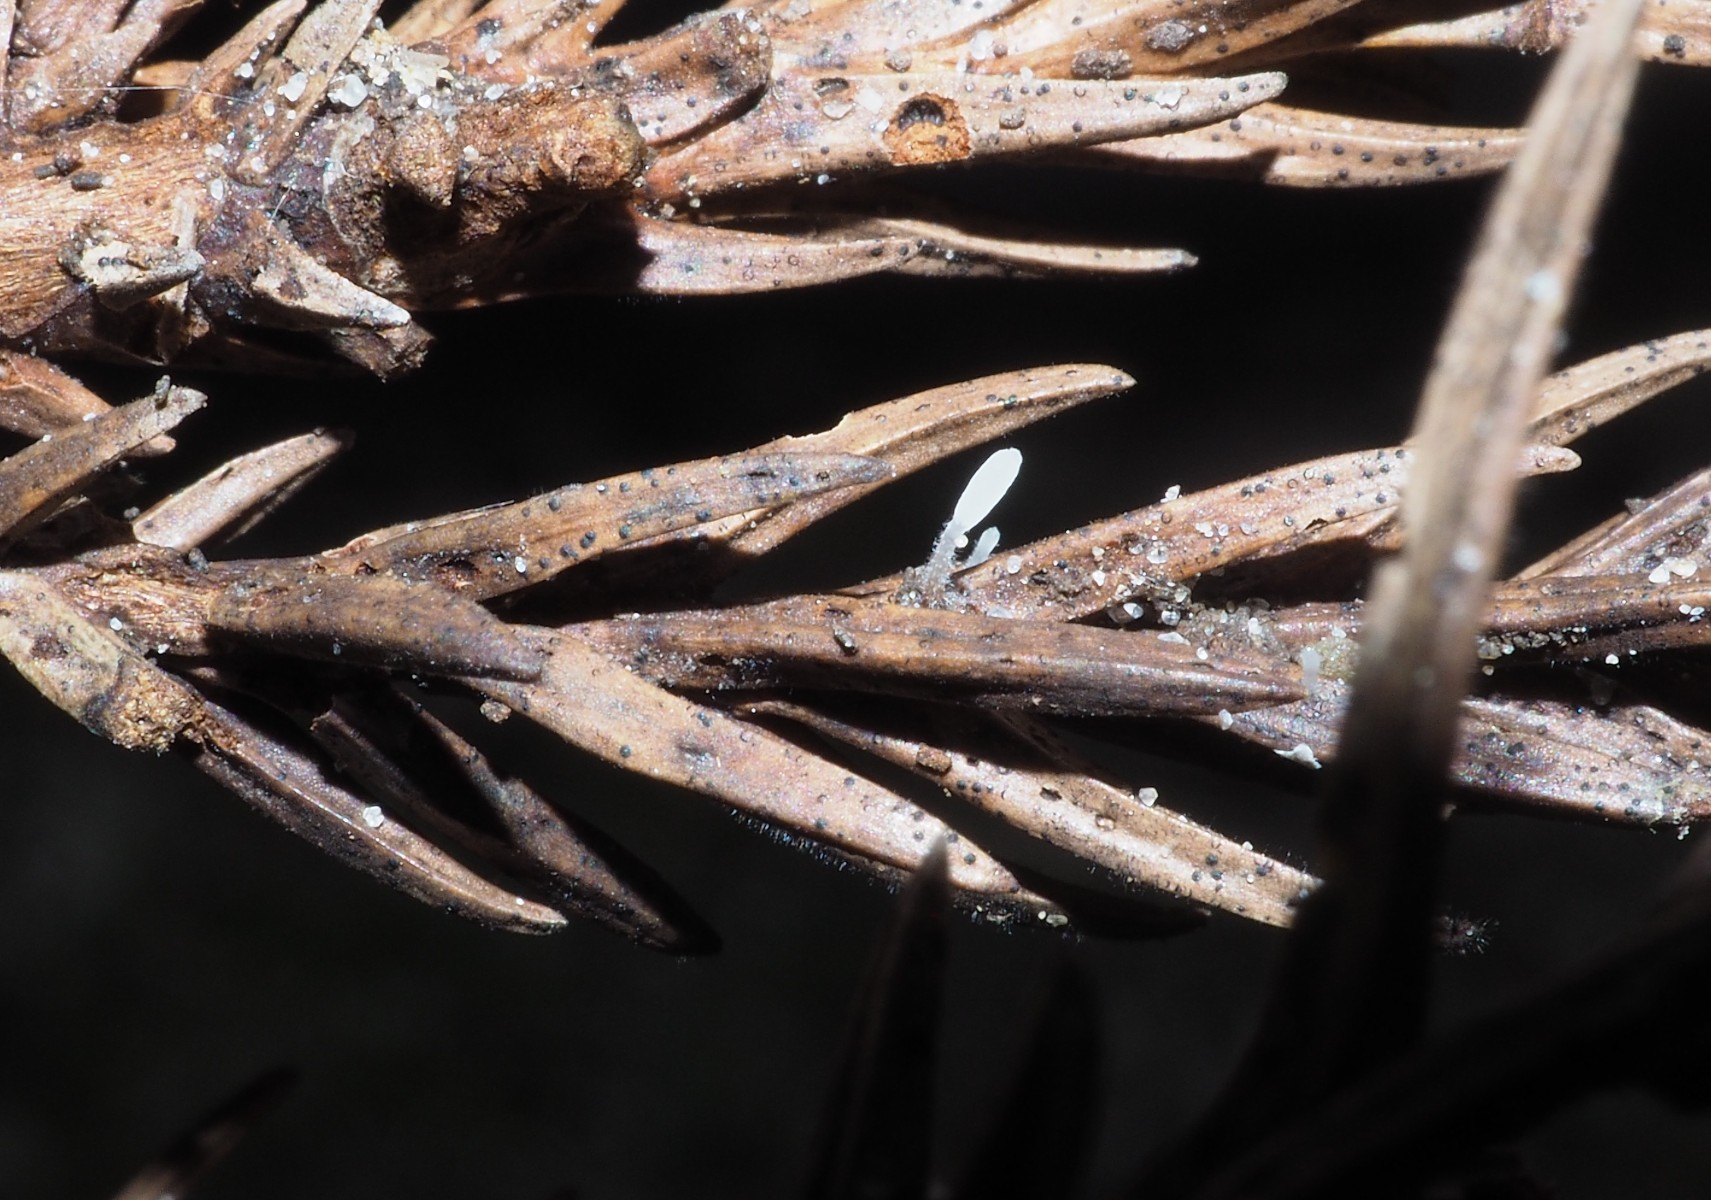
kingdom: Fungi
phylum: Basidiomycota
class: Agaricomycetes
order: Agaricales
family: Typhulaceae
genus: Typhula
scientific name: Typhula
